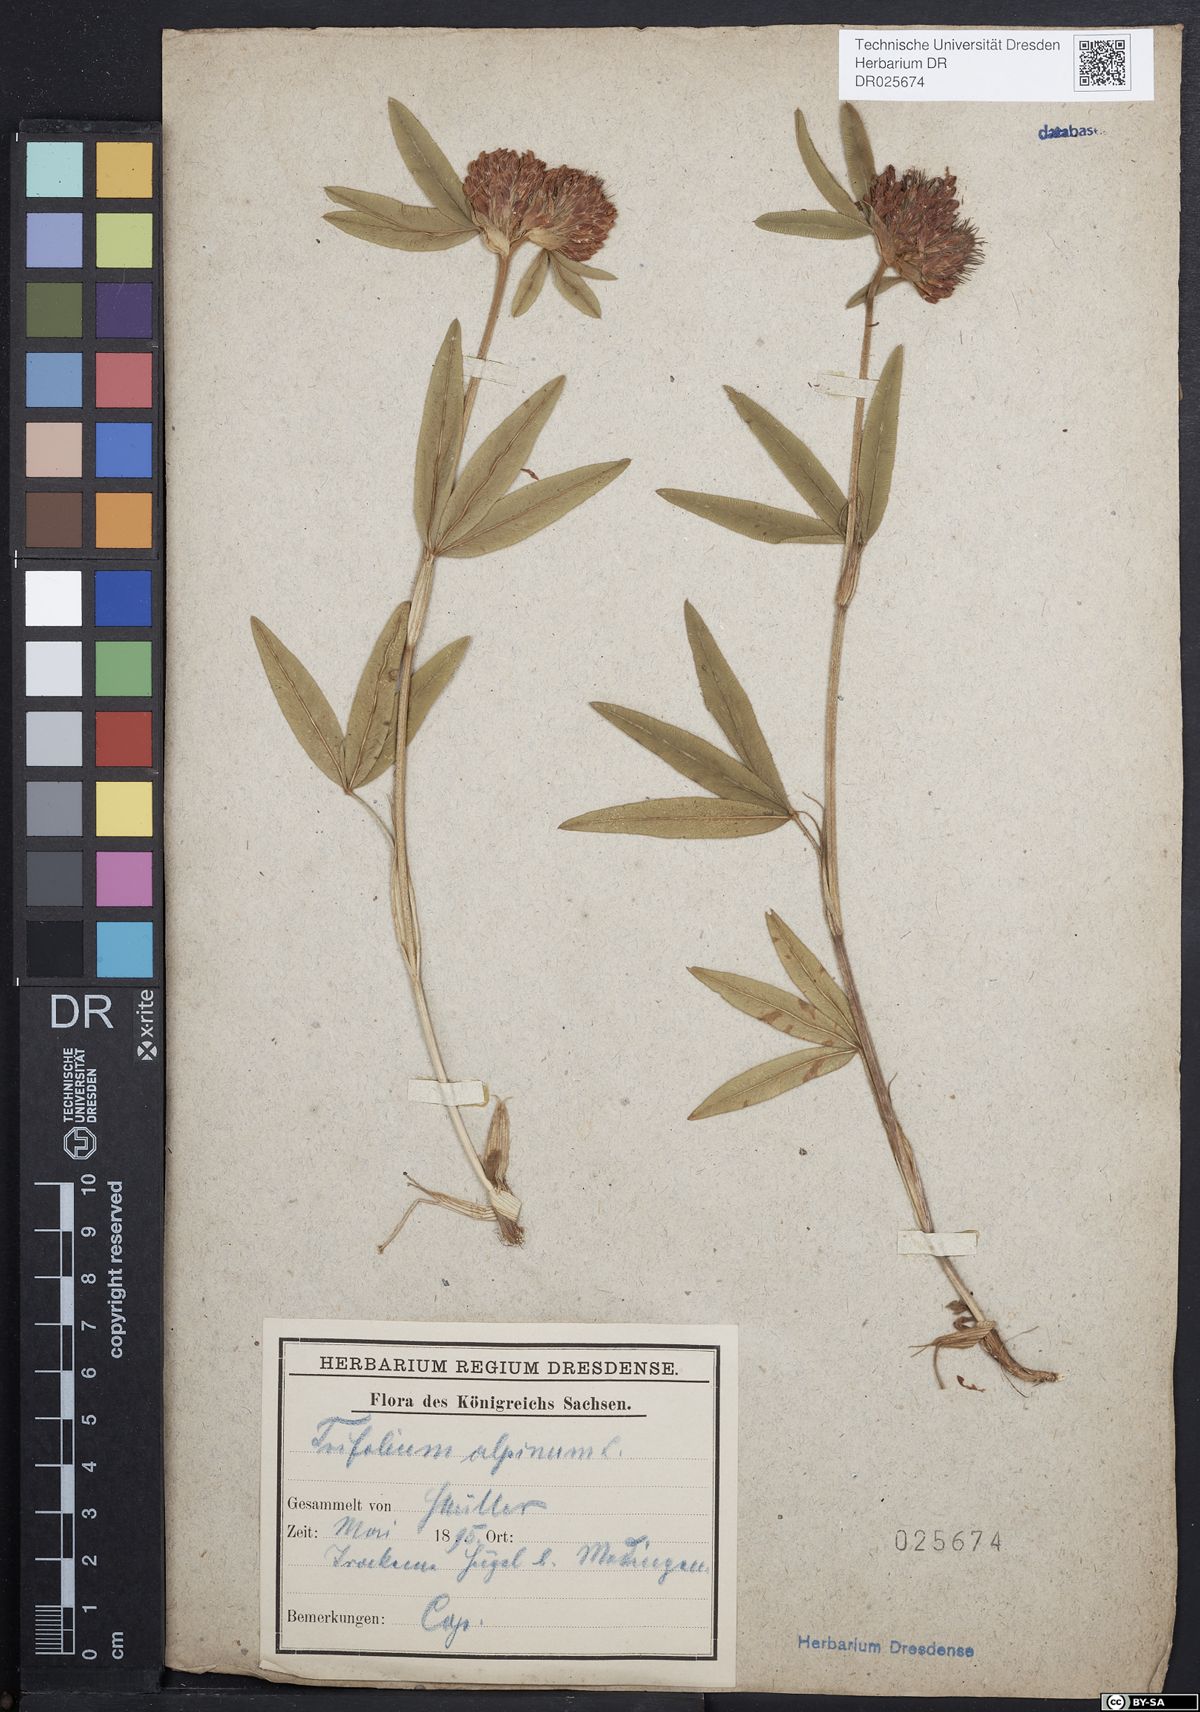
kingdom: Plantae
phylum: Tracheophyta
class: Magnoliopsida
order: Fabales
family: Fabaceae
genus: Trifolium
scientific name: Trifolium alpestre
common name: Owl-head clover
